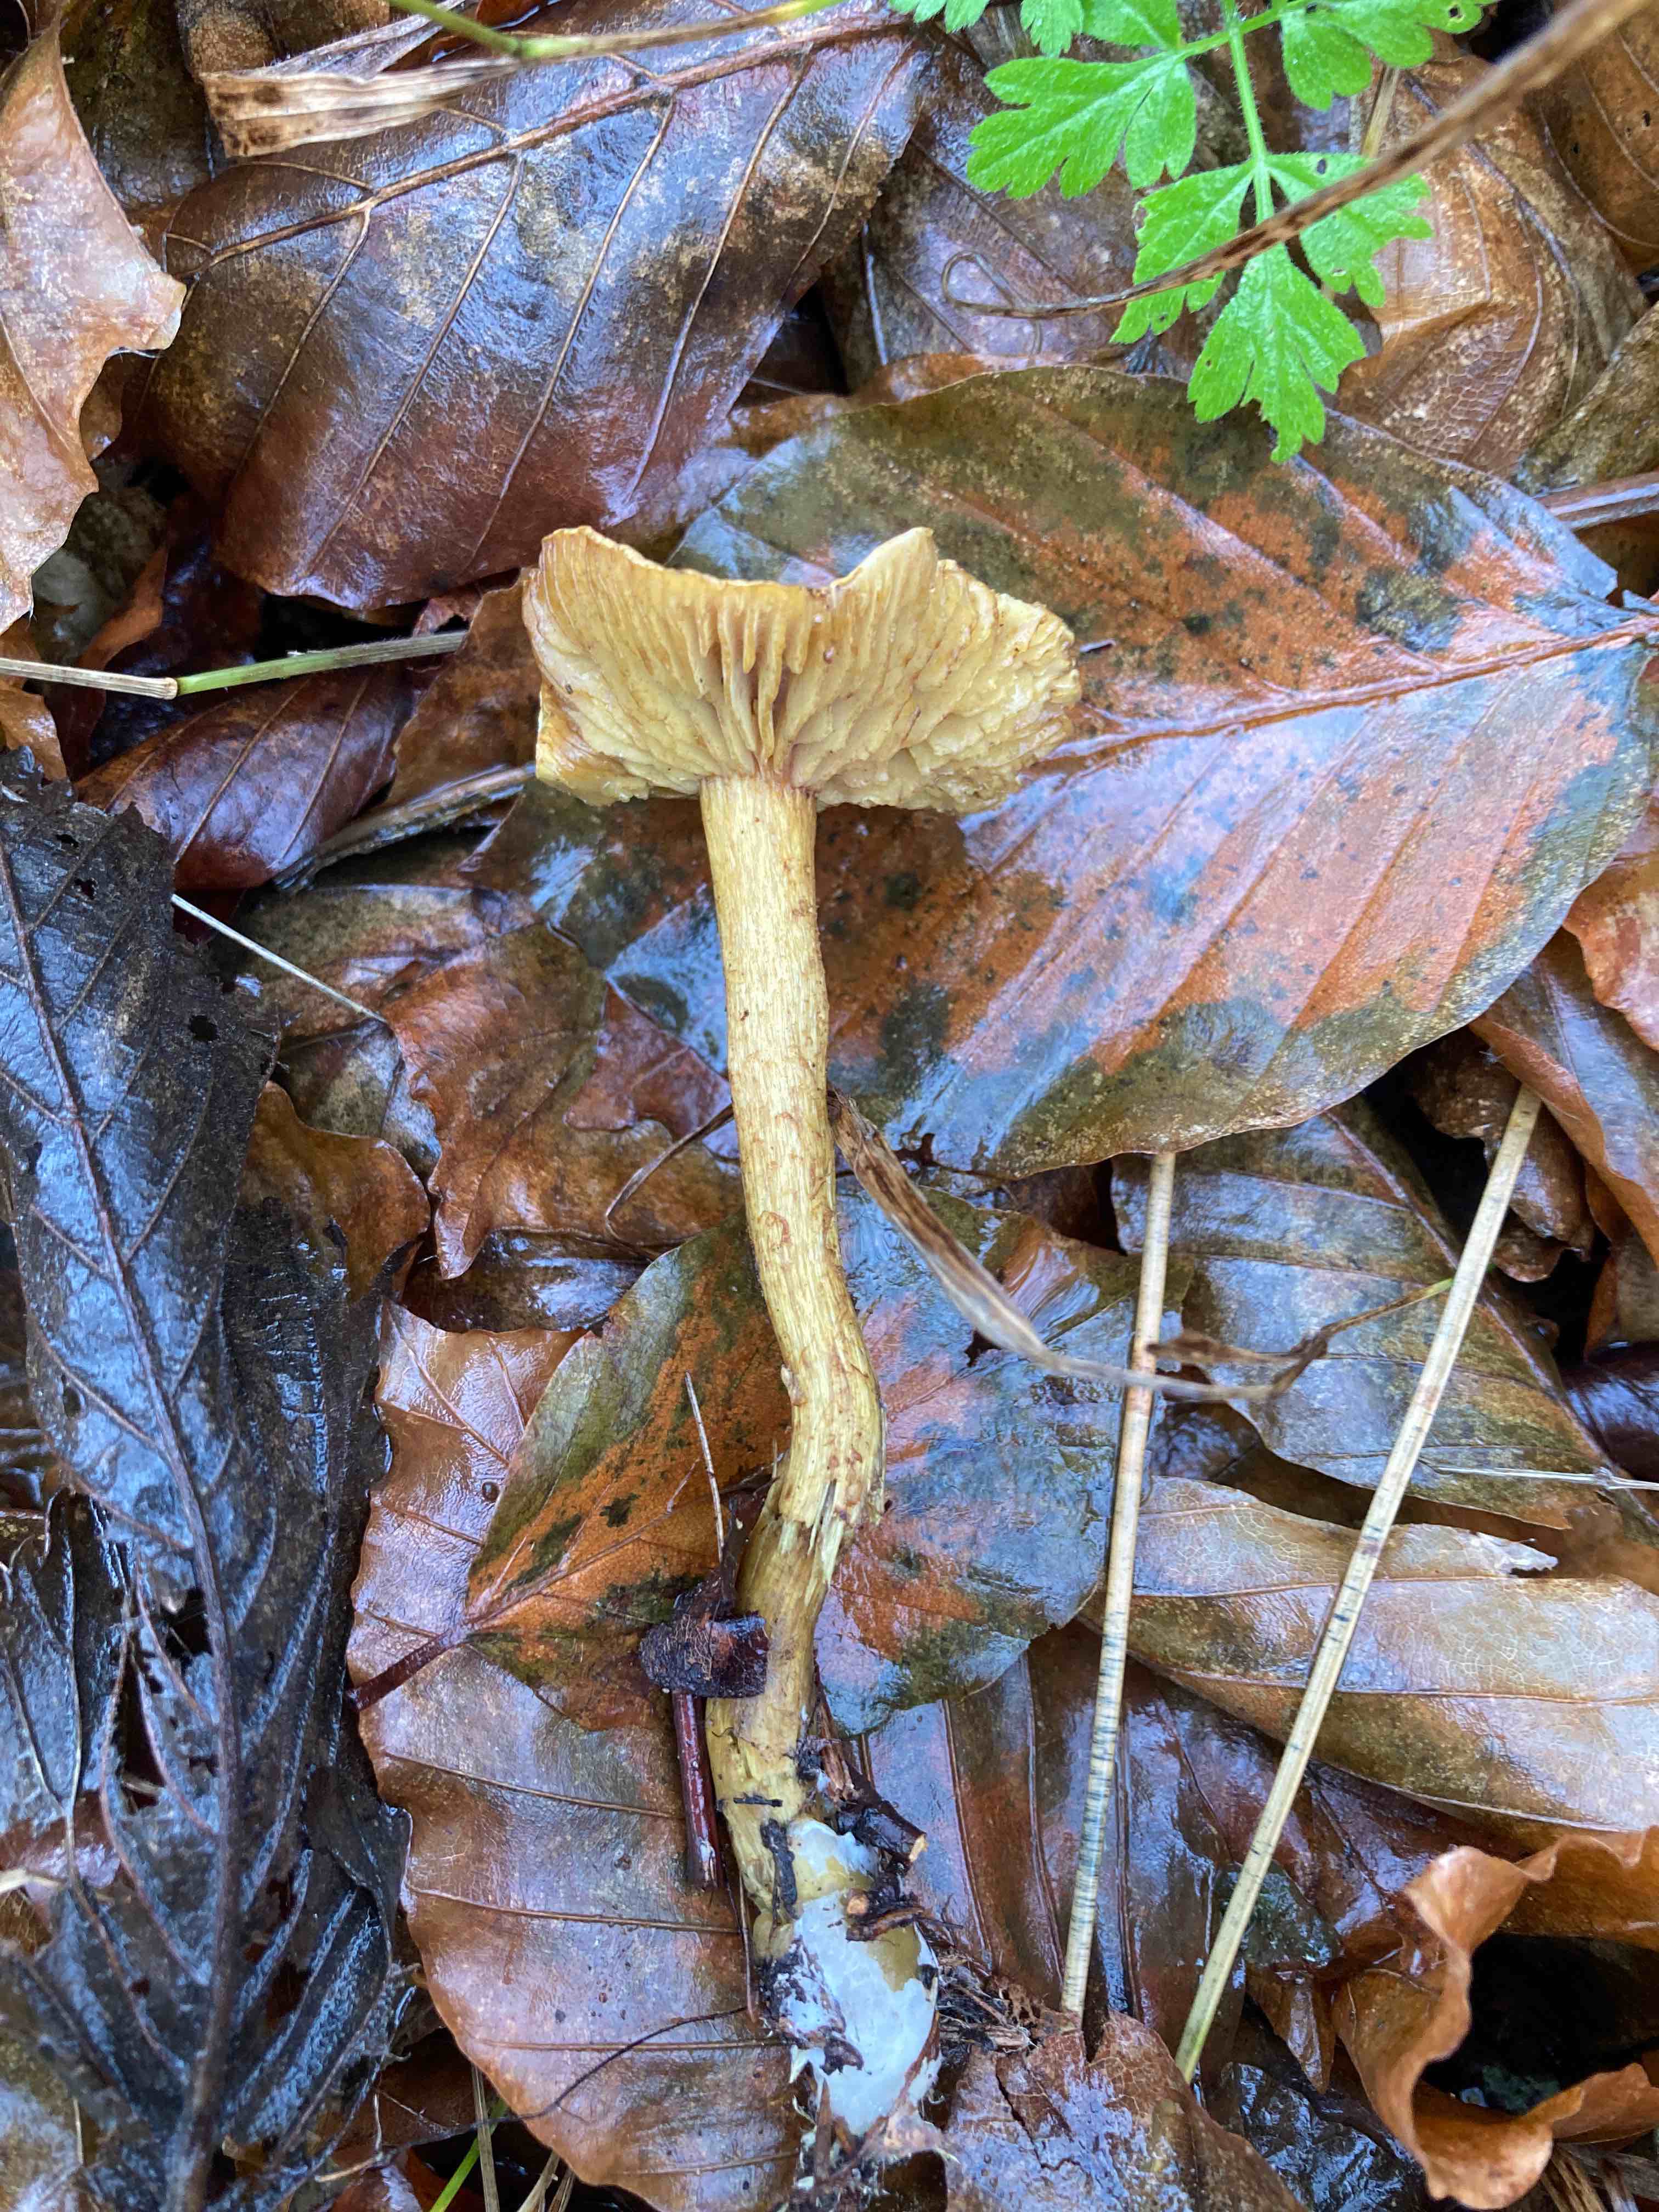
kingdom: Fungi
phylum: Basidiomycota
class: Agaricomycetes
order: Agaricales
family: Tricholomataceae
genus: Tricholoma
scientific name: Tricholoma sulphureum
